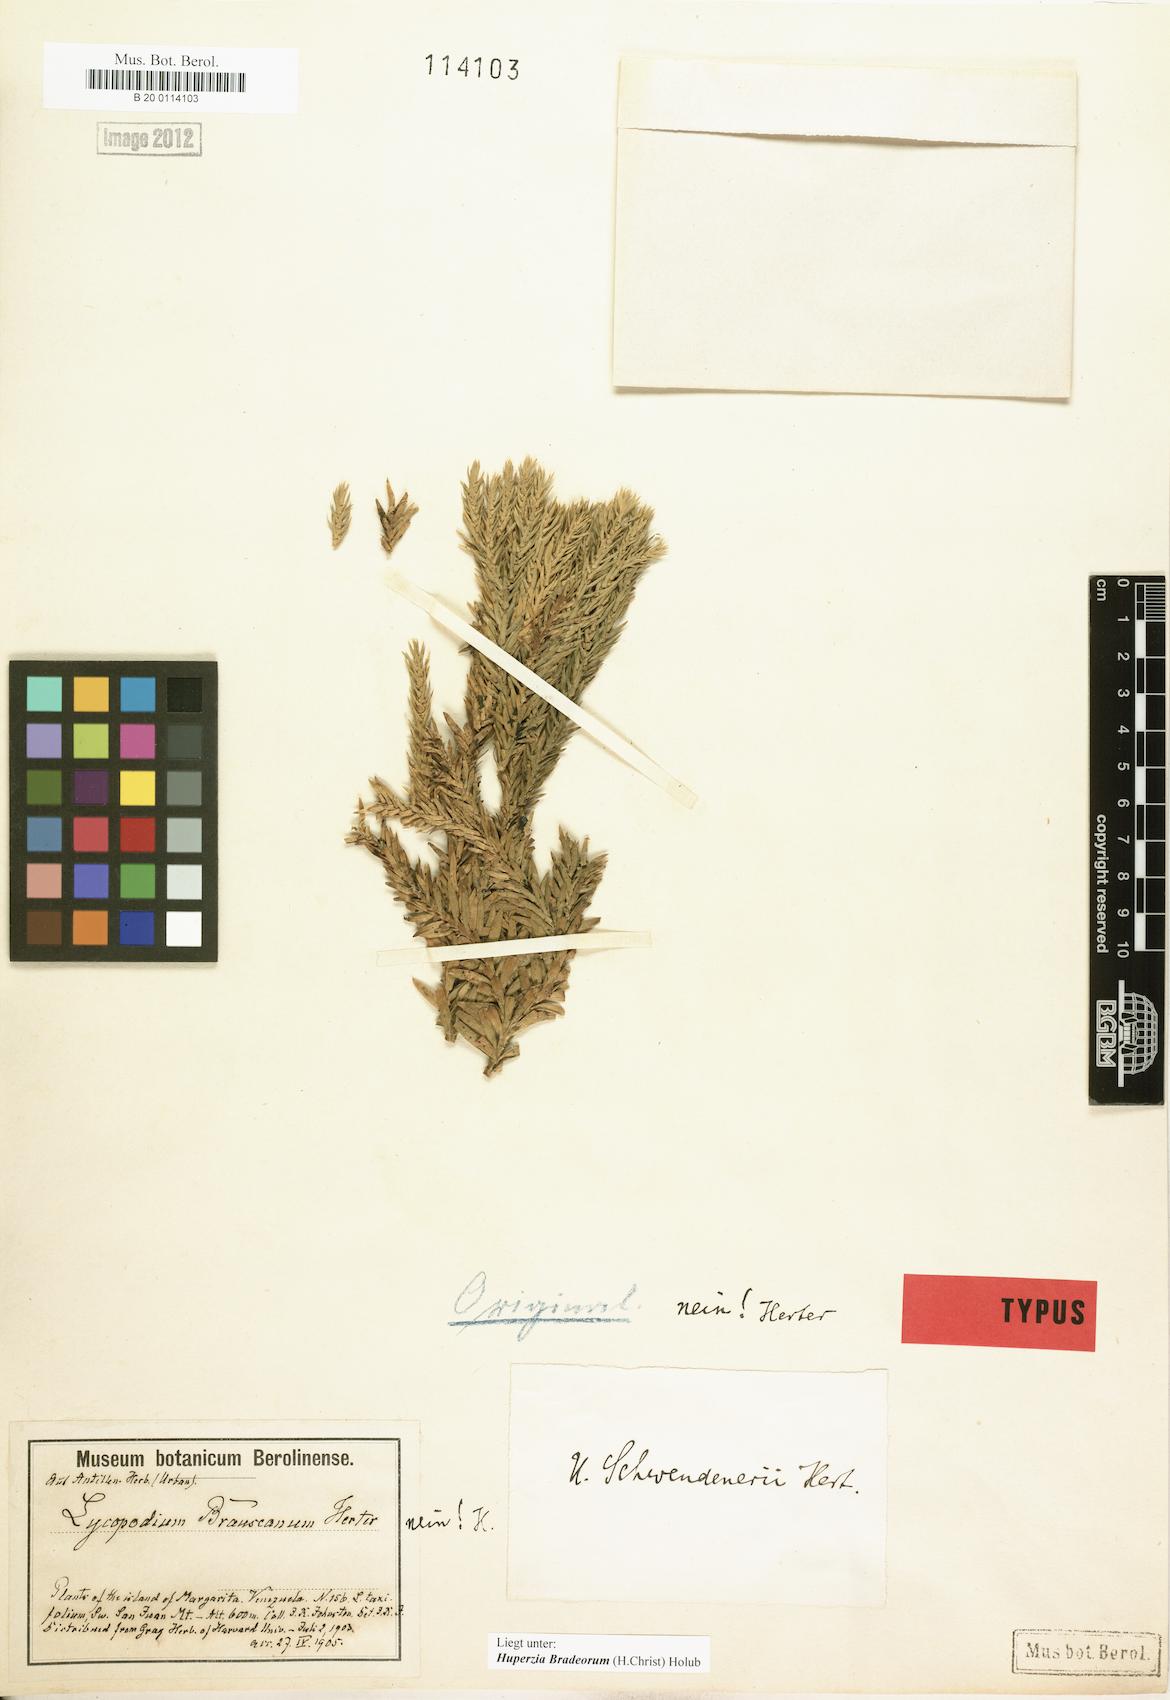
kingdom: Plantae
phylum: Tracheophyta
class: Lycopodiopsida
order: Lycopodiales
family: Lycopodiaceae
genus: Phlegmariurus
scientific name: Phlegmariurus bradeorum
